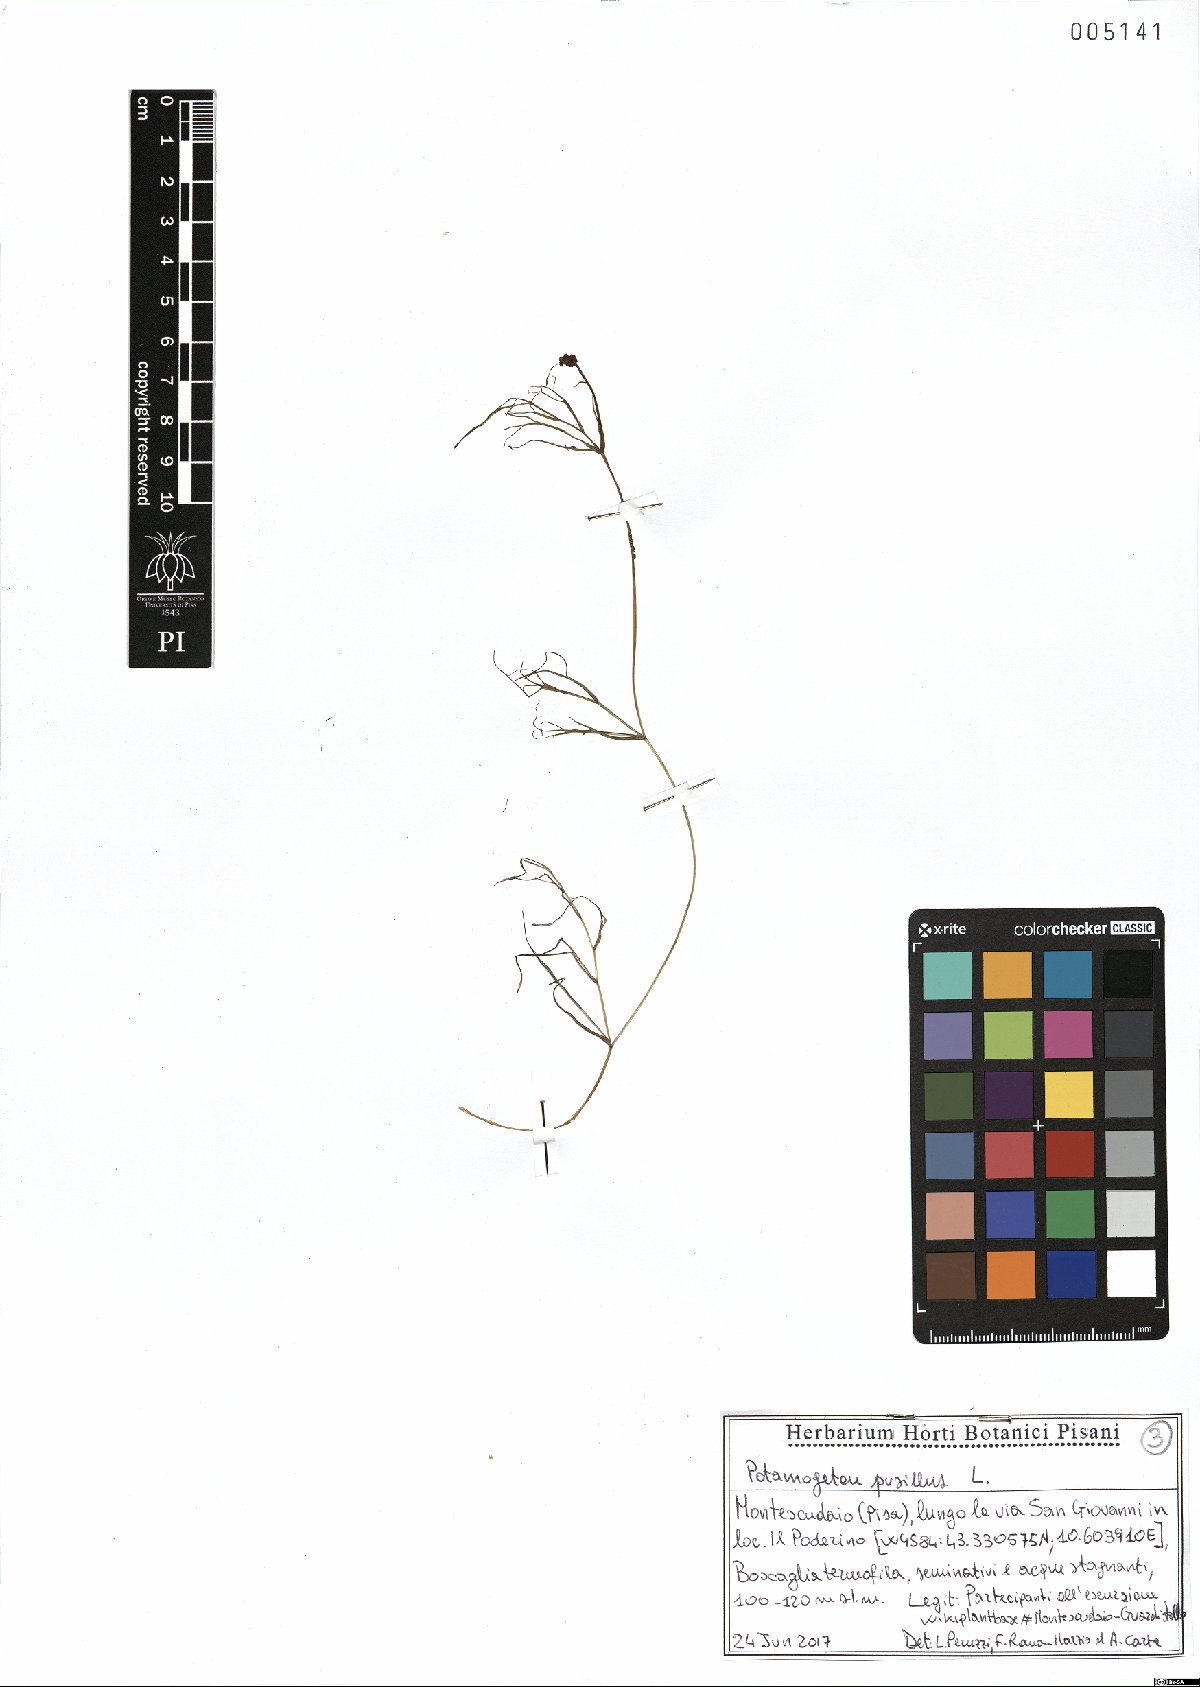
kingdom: Plantae
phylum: Tracheophyta
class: Liliopsida
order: Alismatales
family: Potamogetonaceae
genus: Potamogeton
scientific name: Potamogeton pusillus
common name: Lesser pondweed
